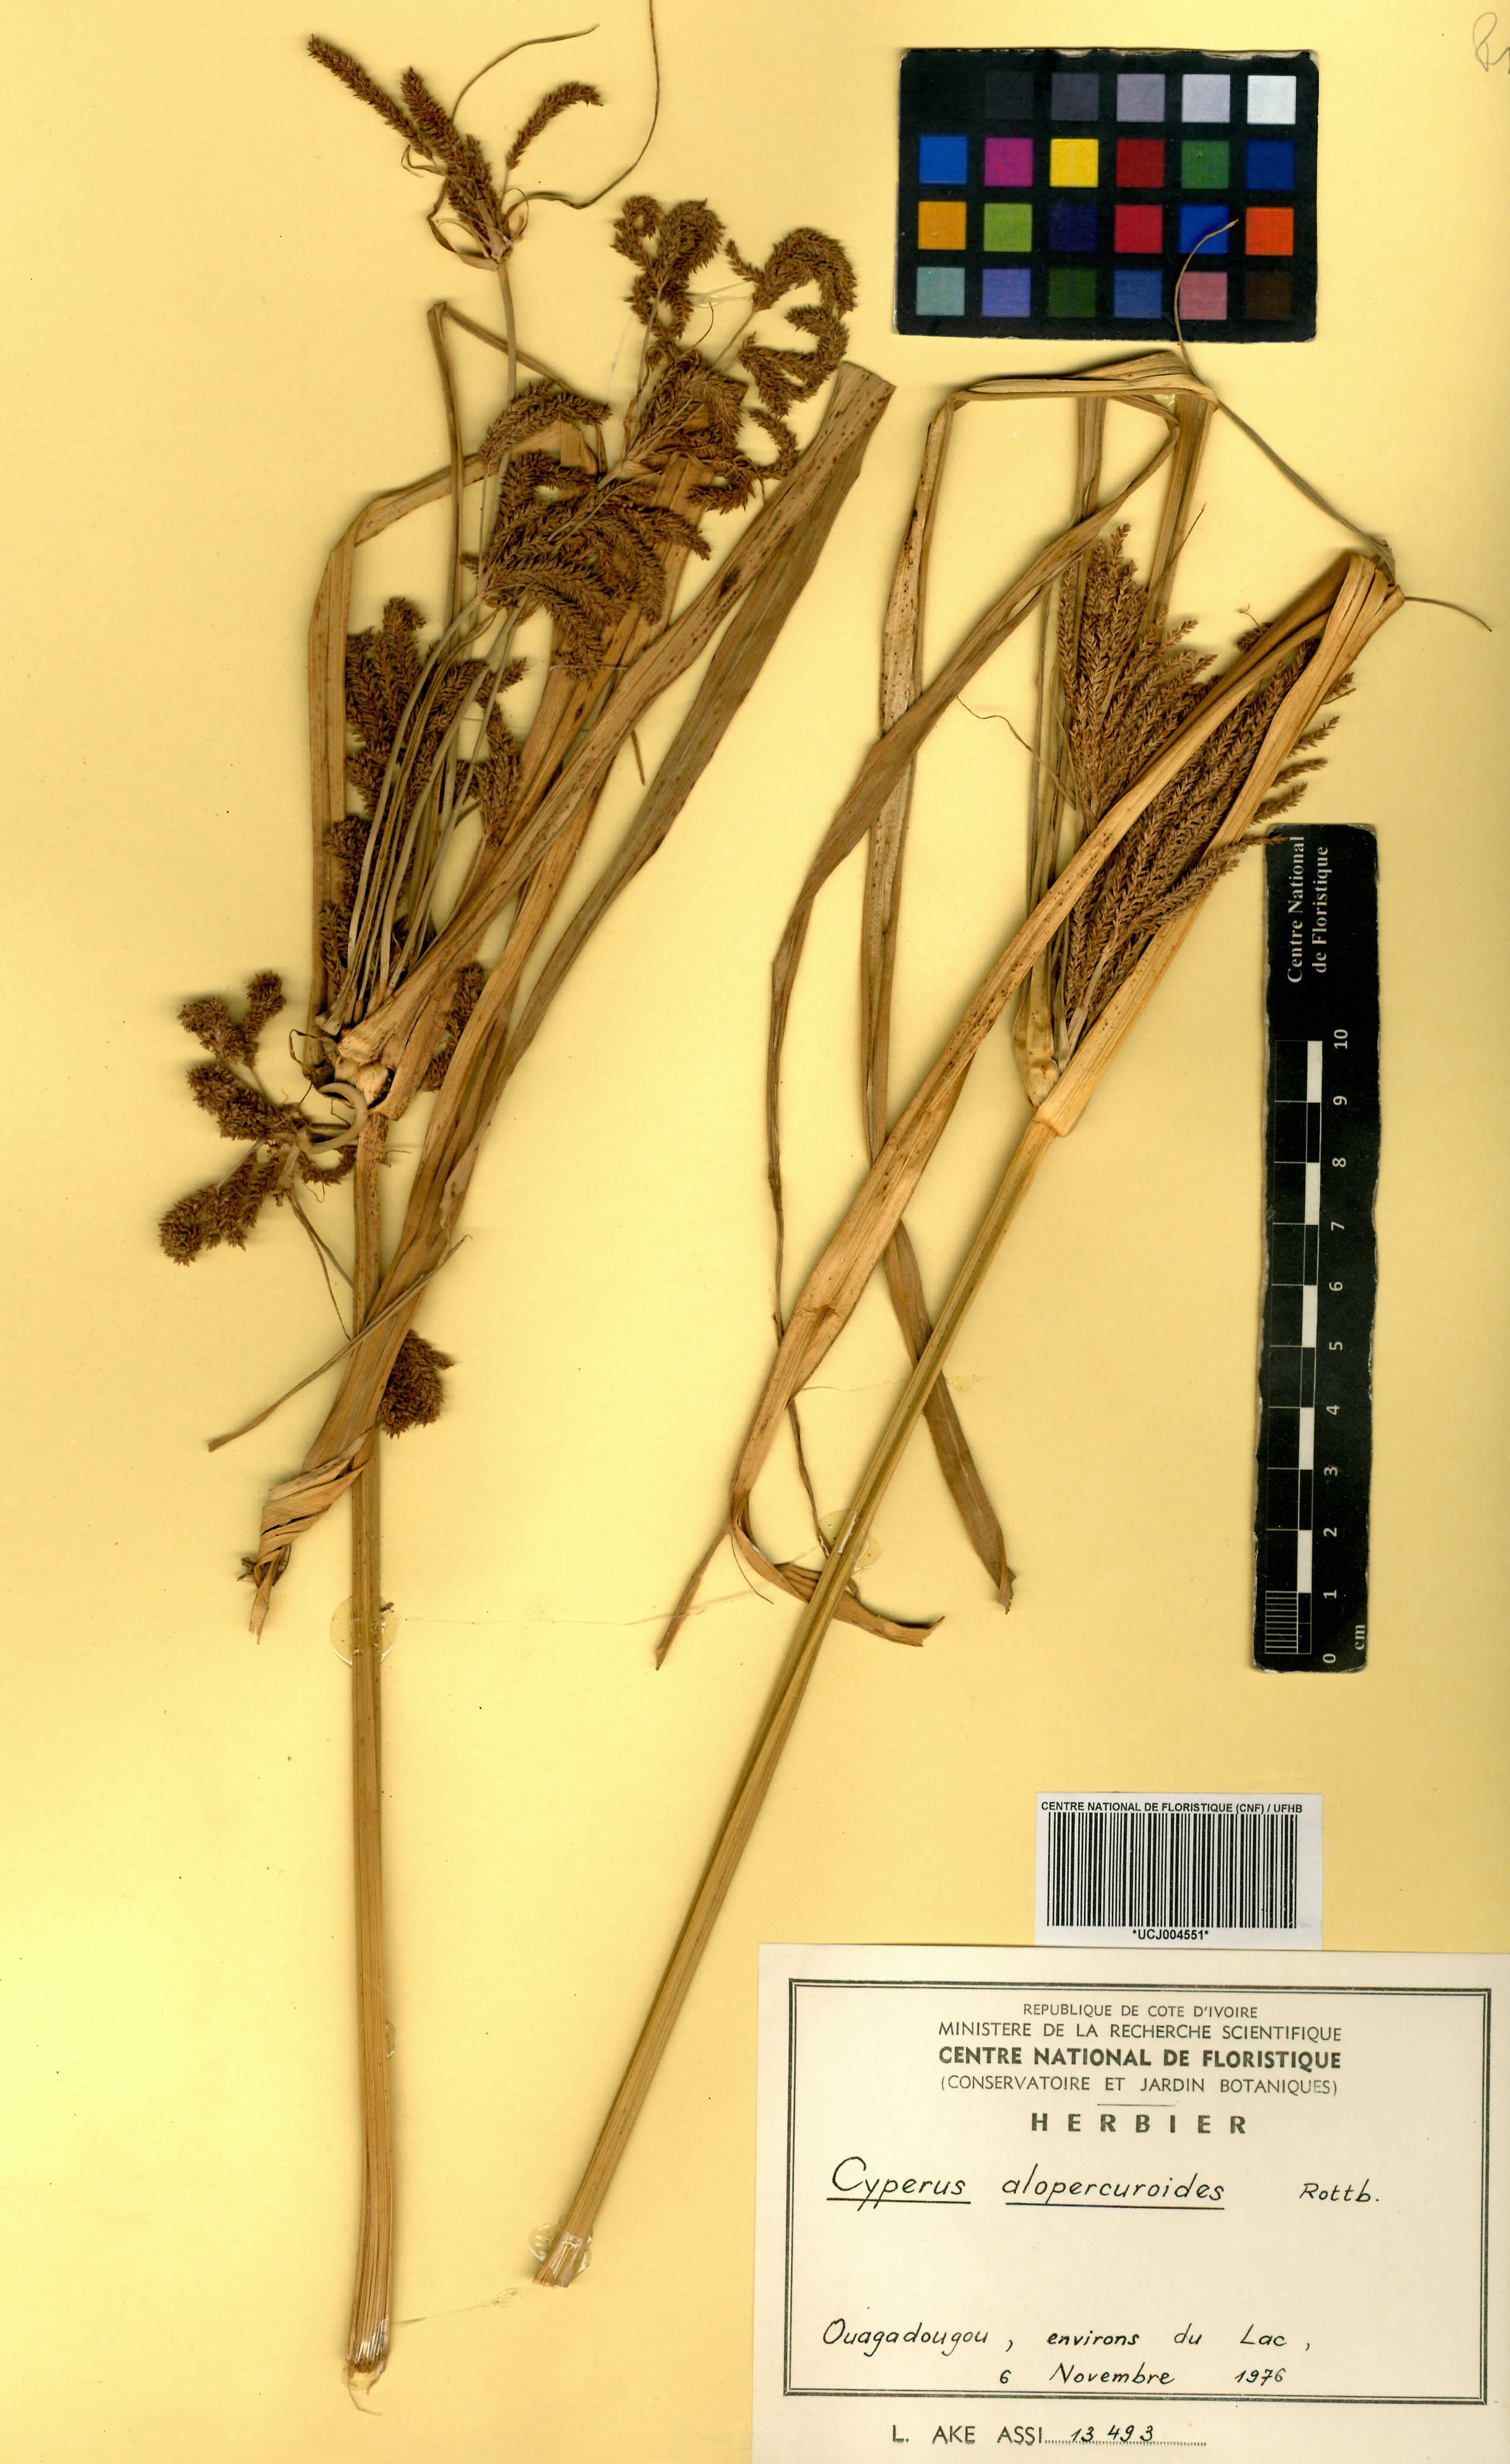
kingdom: Plantae
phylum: Tracheophyta
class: Liliopsida
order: Poales
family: Cyperaceae
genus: Cyperus
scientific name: Cyperus alopecuroides
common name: Foxtail flatsedge
